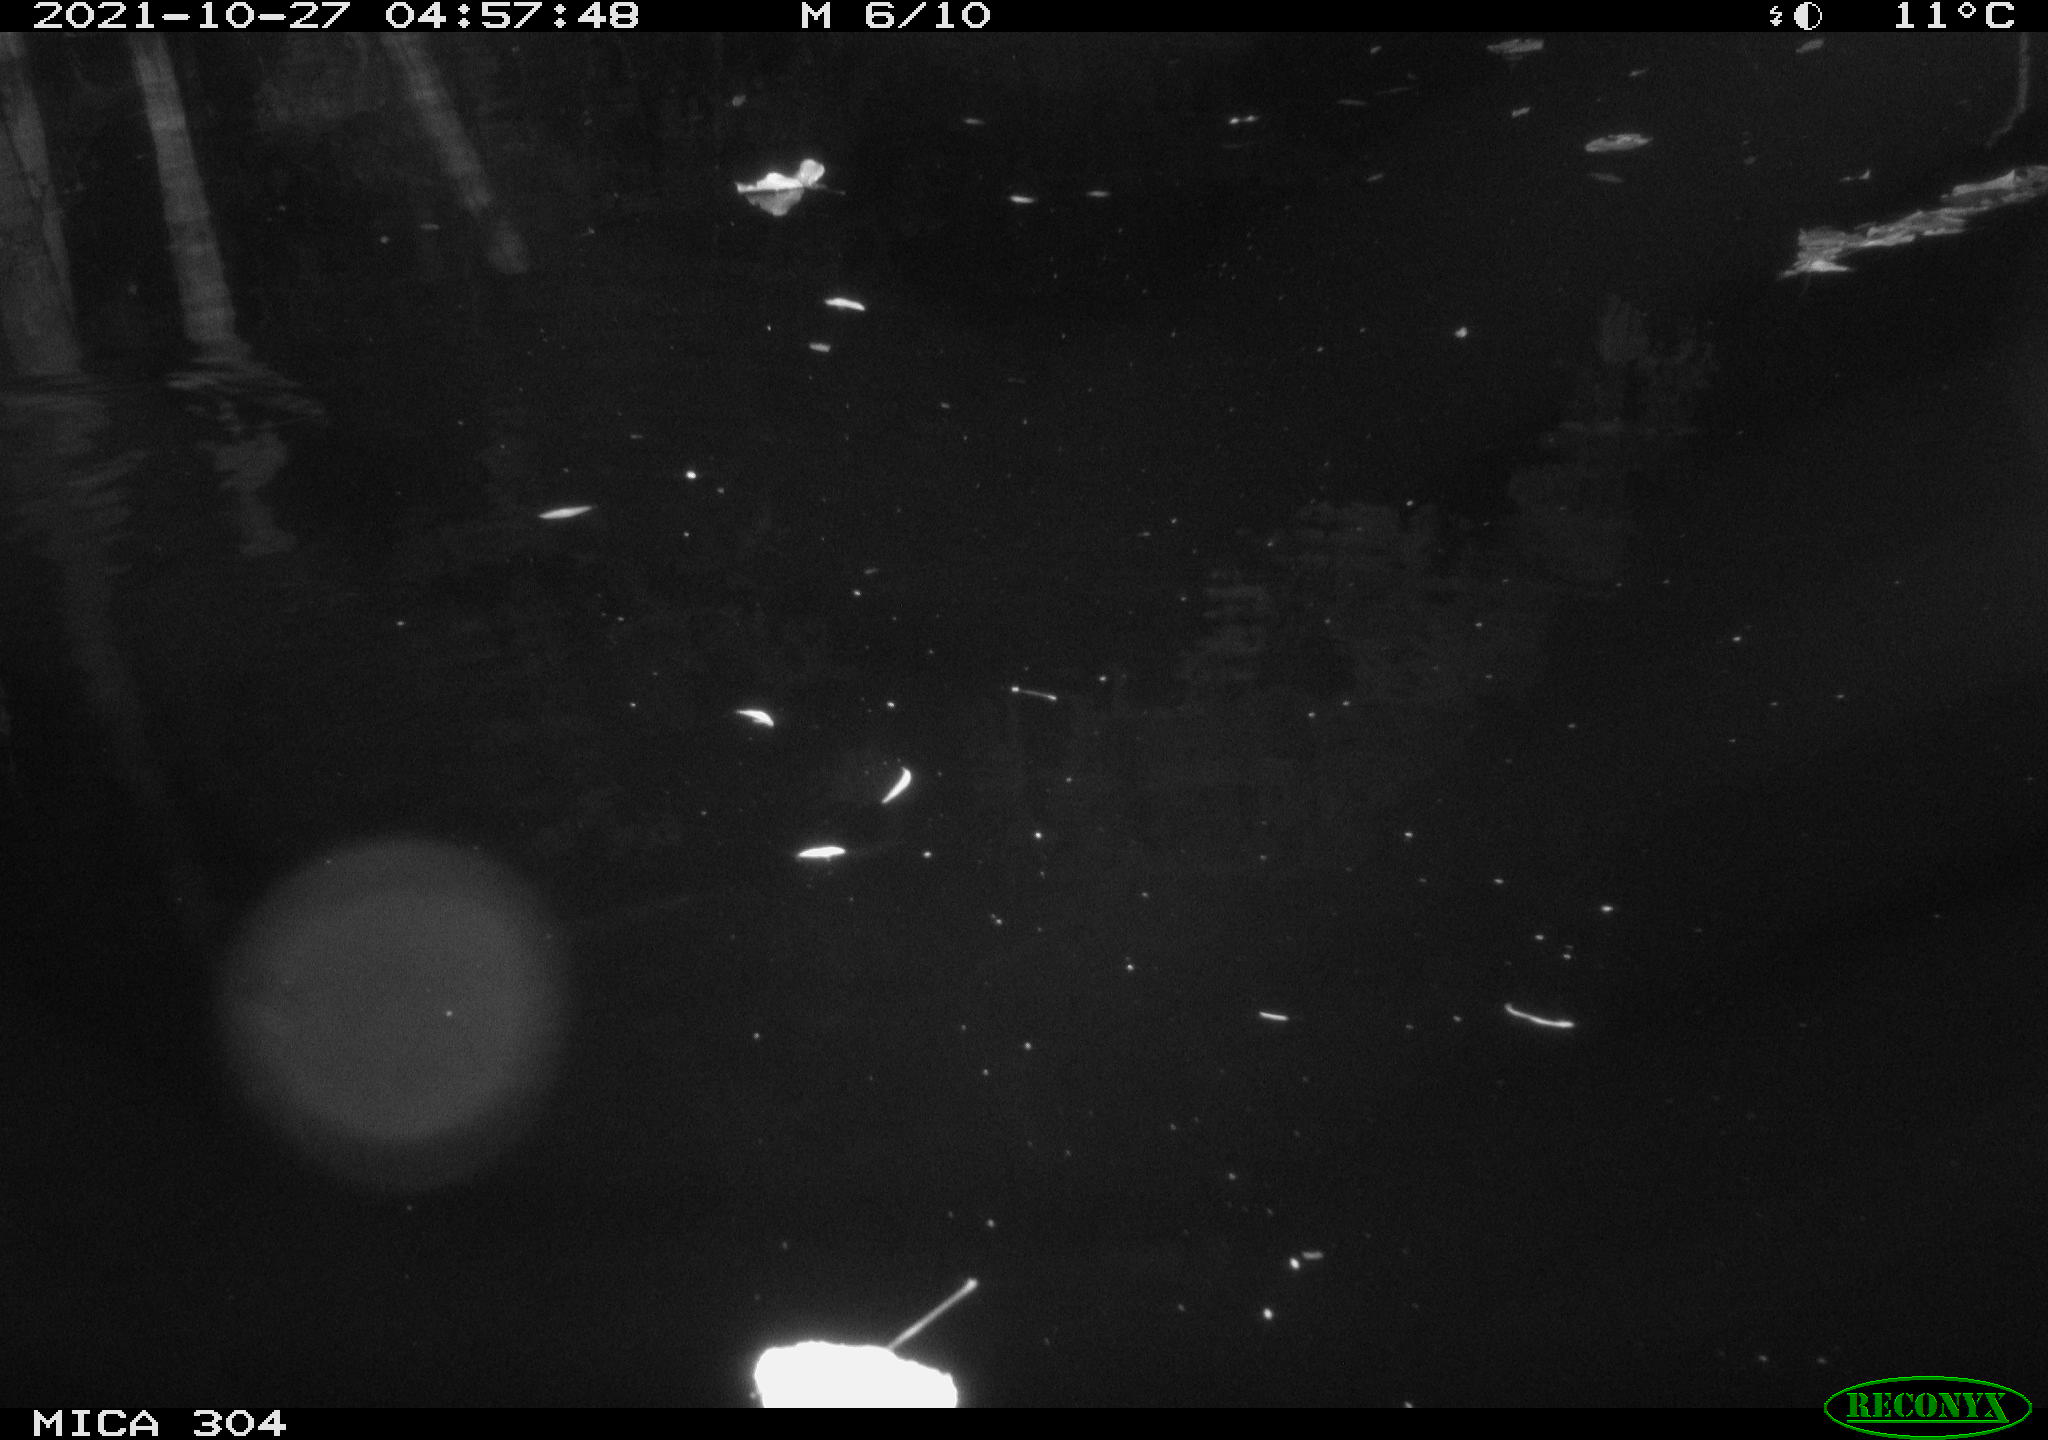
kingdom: Animalia
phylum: Chordata
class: Mammalia
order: Rodentia
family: Muridae
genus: Rattus
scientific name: Rattus norvegicus
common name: Brown rat
